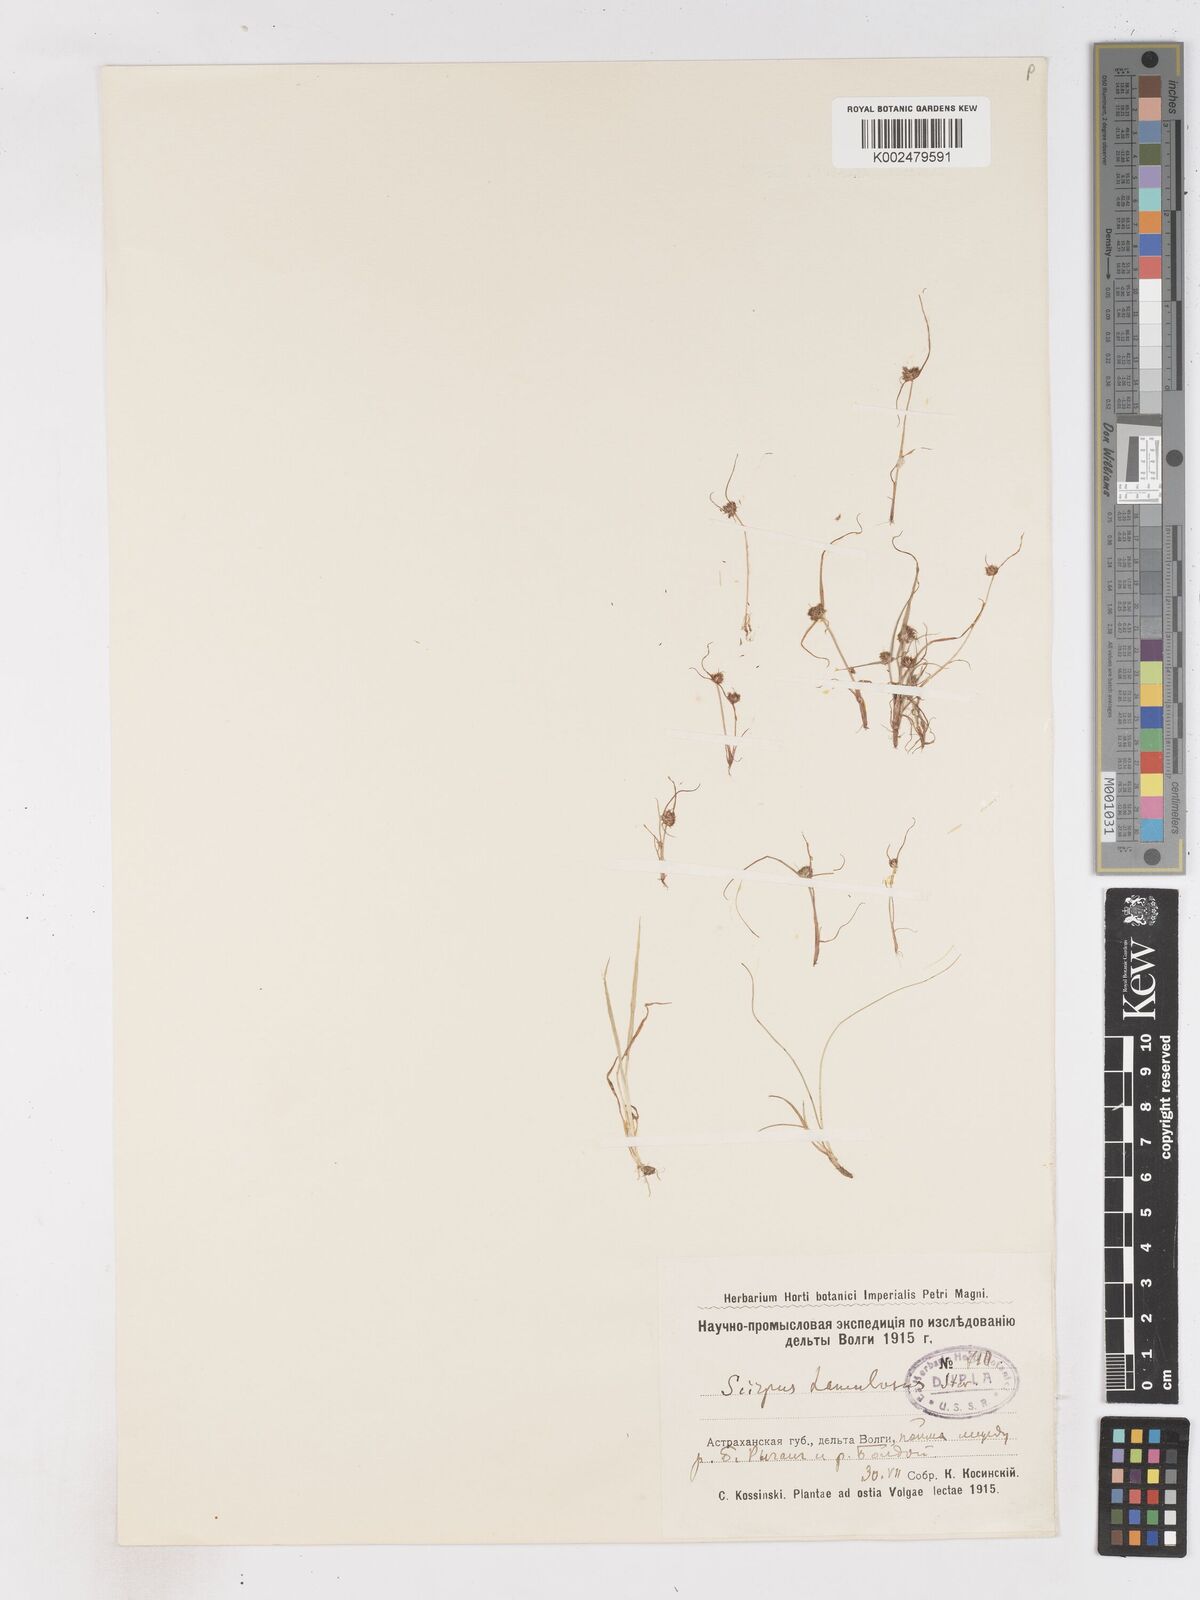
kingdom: Plantae
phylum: Tracheophyta
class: Liliopsida
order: Poales
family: Cyperaceae
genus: Cyperus
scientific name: Cyperus hamulosus
